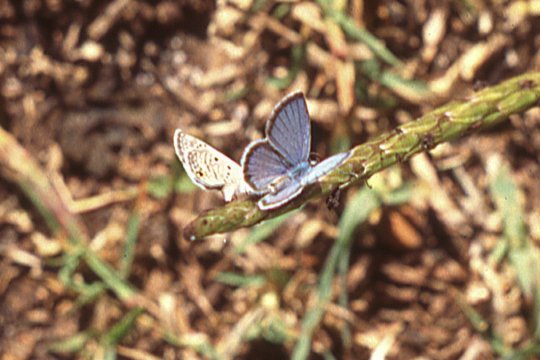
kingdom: Animalia
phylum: Arthropoda
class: Insecta
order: Lepidoptera
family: Lycaenidae
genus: Hemiargus
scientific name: Hemiargus ceraunus
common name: Ceraunus Blue
